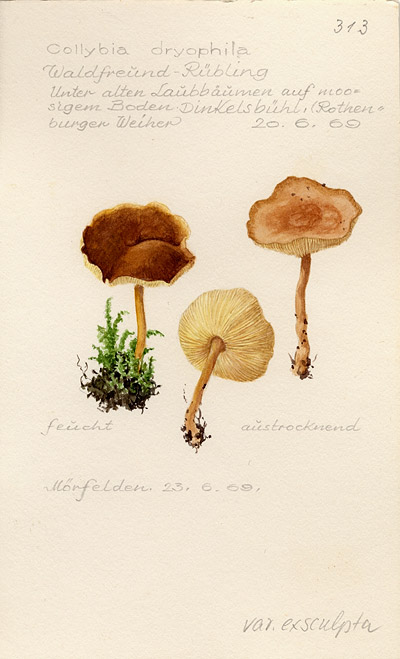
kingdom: Fungi
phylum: Basidiomycota
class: Agaricomycetes
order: Agaricales
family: Omphalotaceae
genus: Gymnopus
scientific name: Gymnopus dryophilus
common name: Penny top
